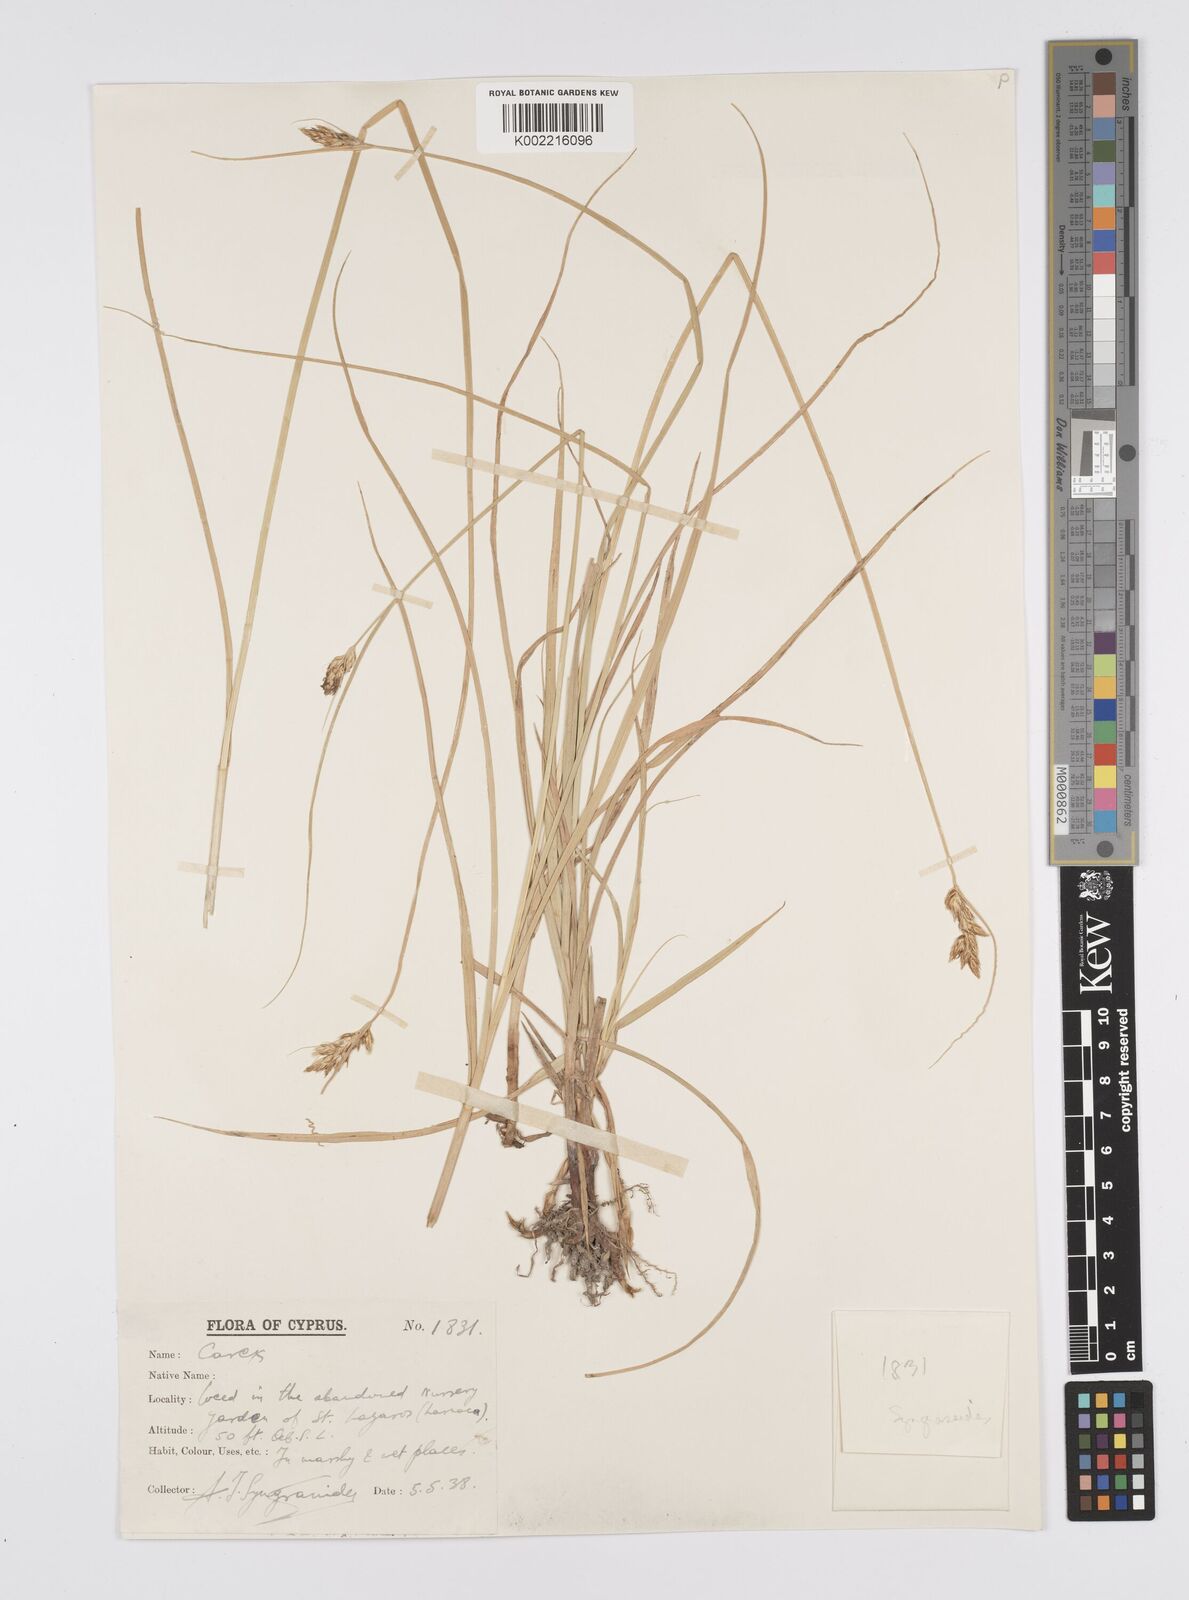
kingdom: Plantae
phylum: Tracheophyta
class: Liliopsida
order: Poales
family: Cyperaceae
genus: Carex
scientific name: Carex divisa
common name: Divided sedge
